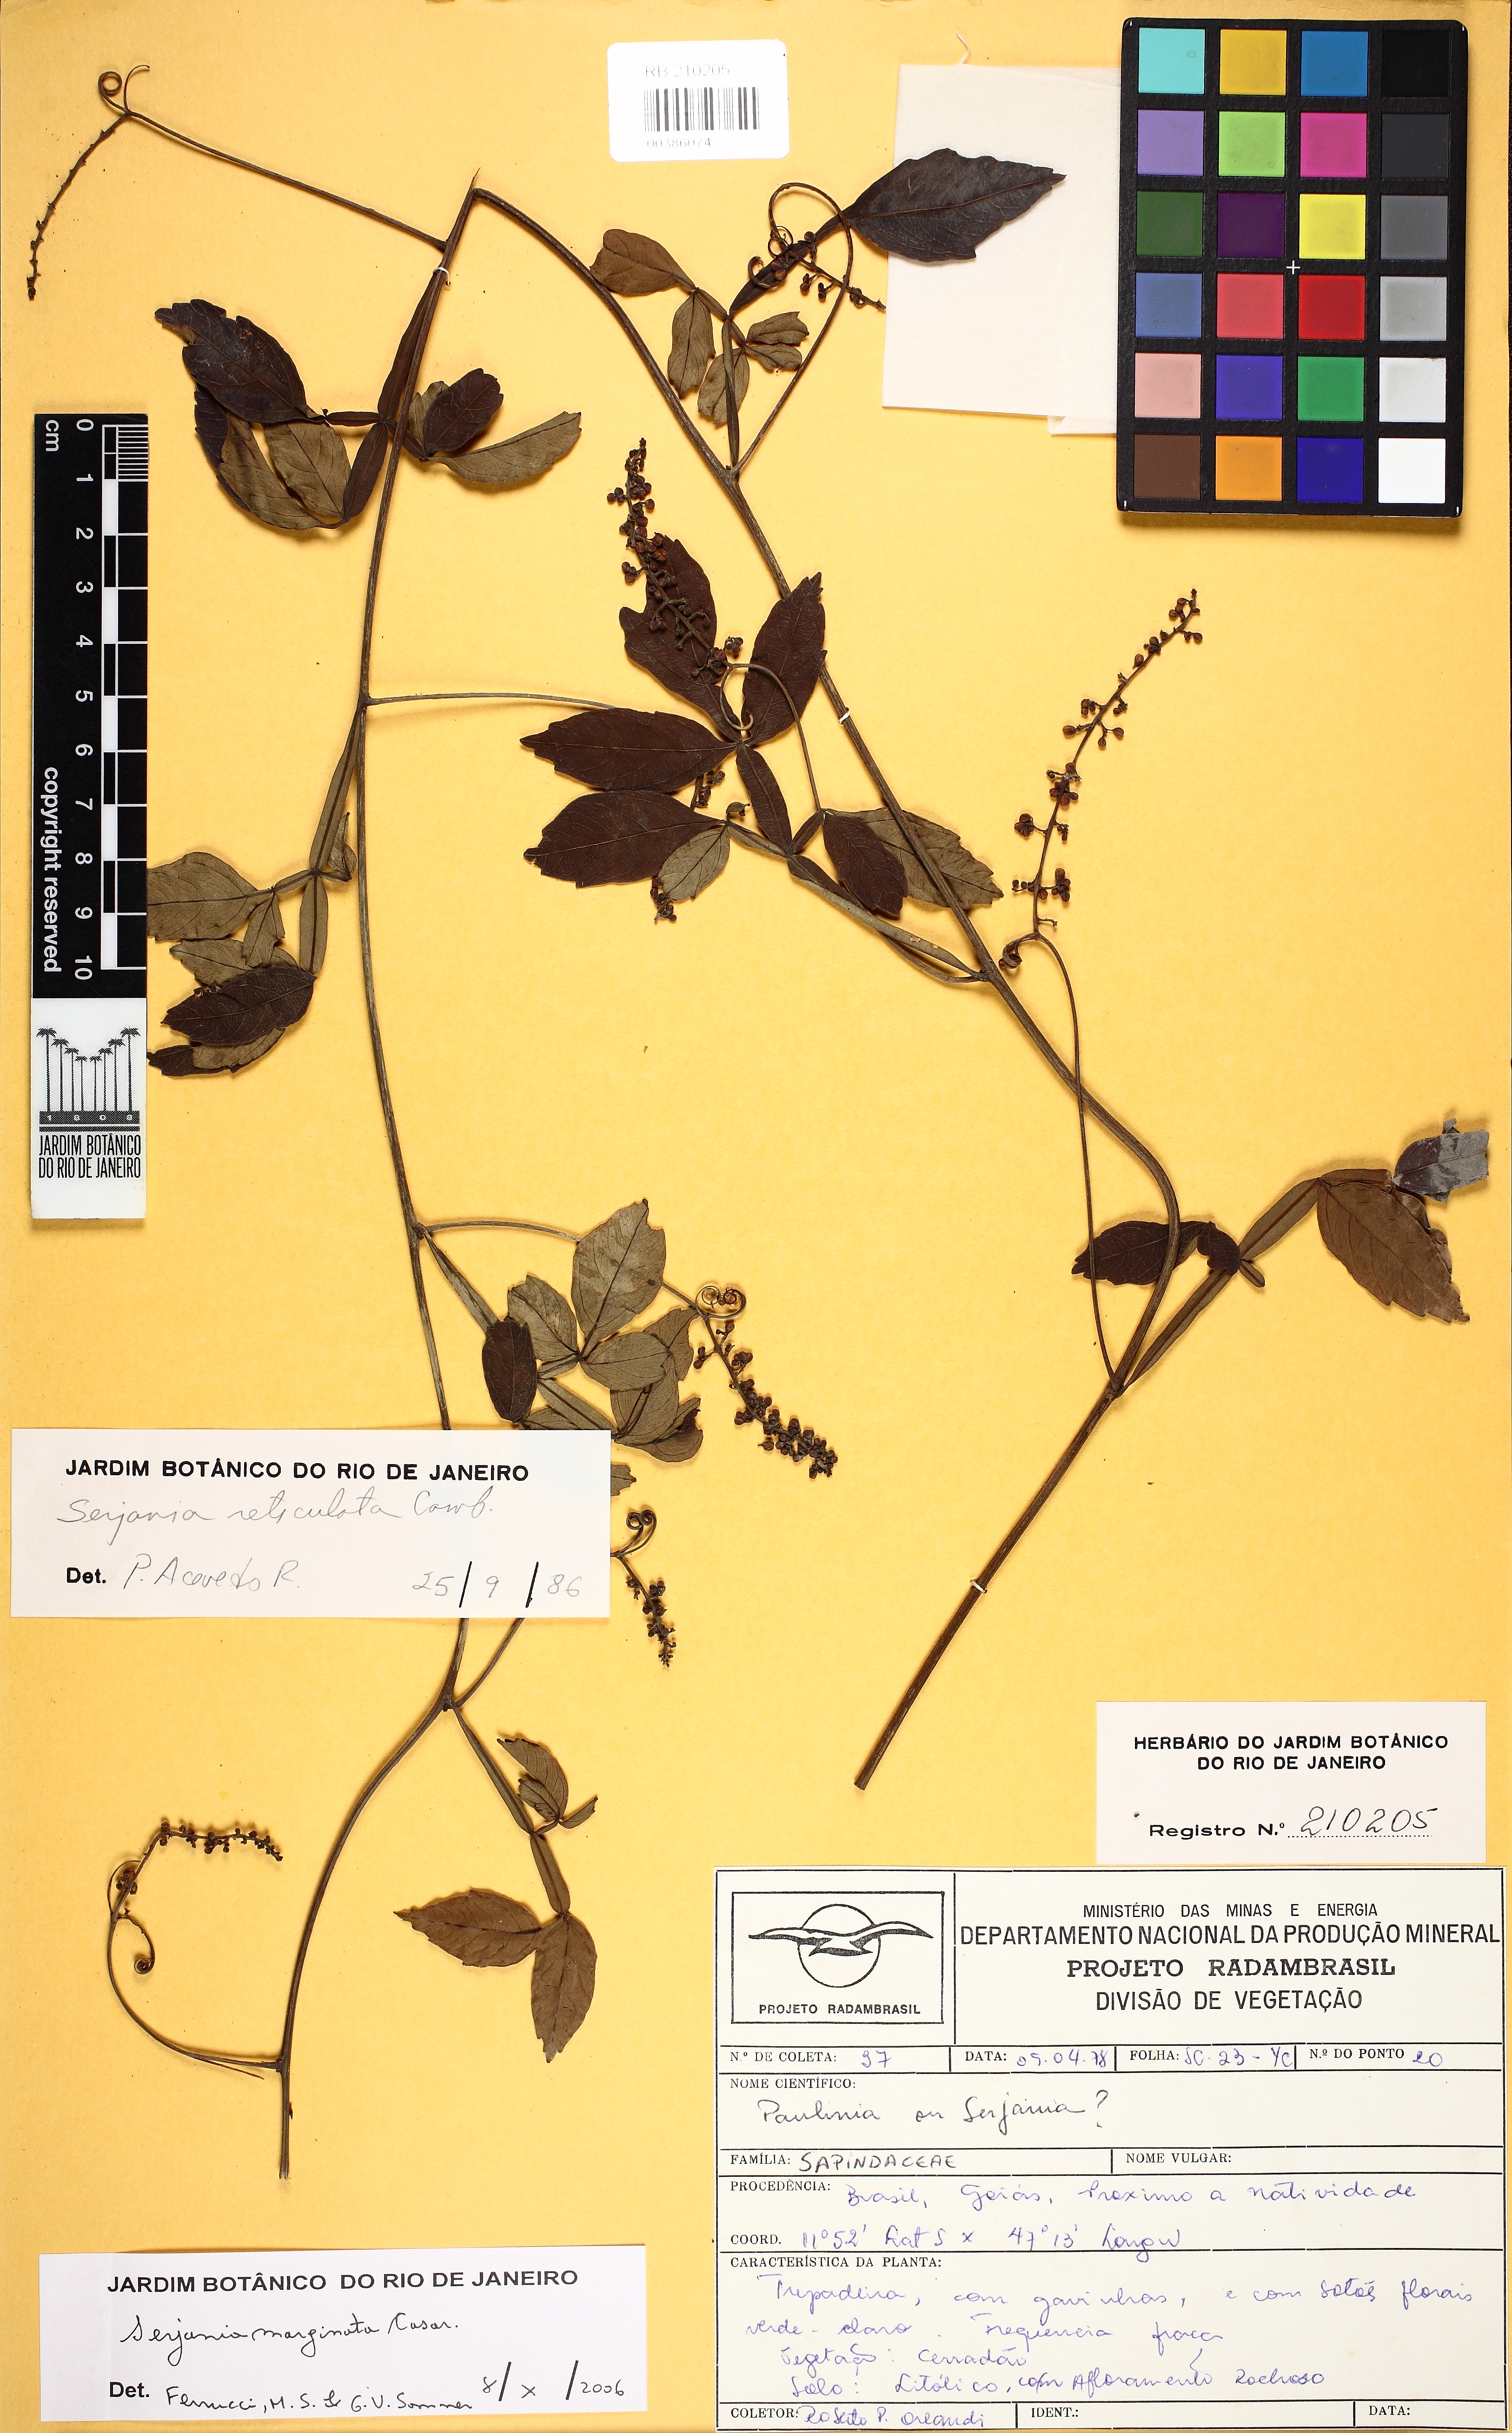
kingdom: Plantae
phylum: Tracheophyta
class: Magnoliopsida
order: Sapindales
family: Sapindaceae
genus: Serjania
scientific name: Serjania marginata
